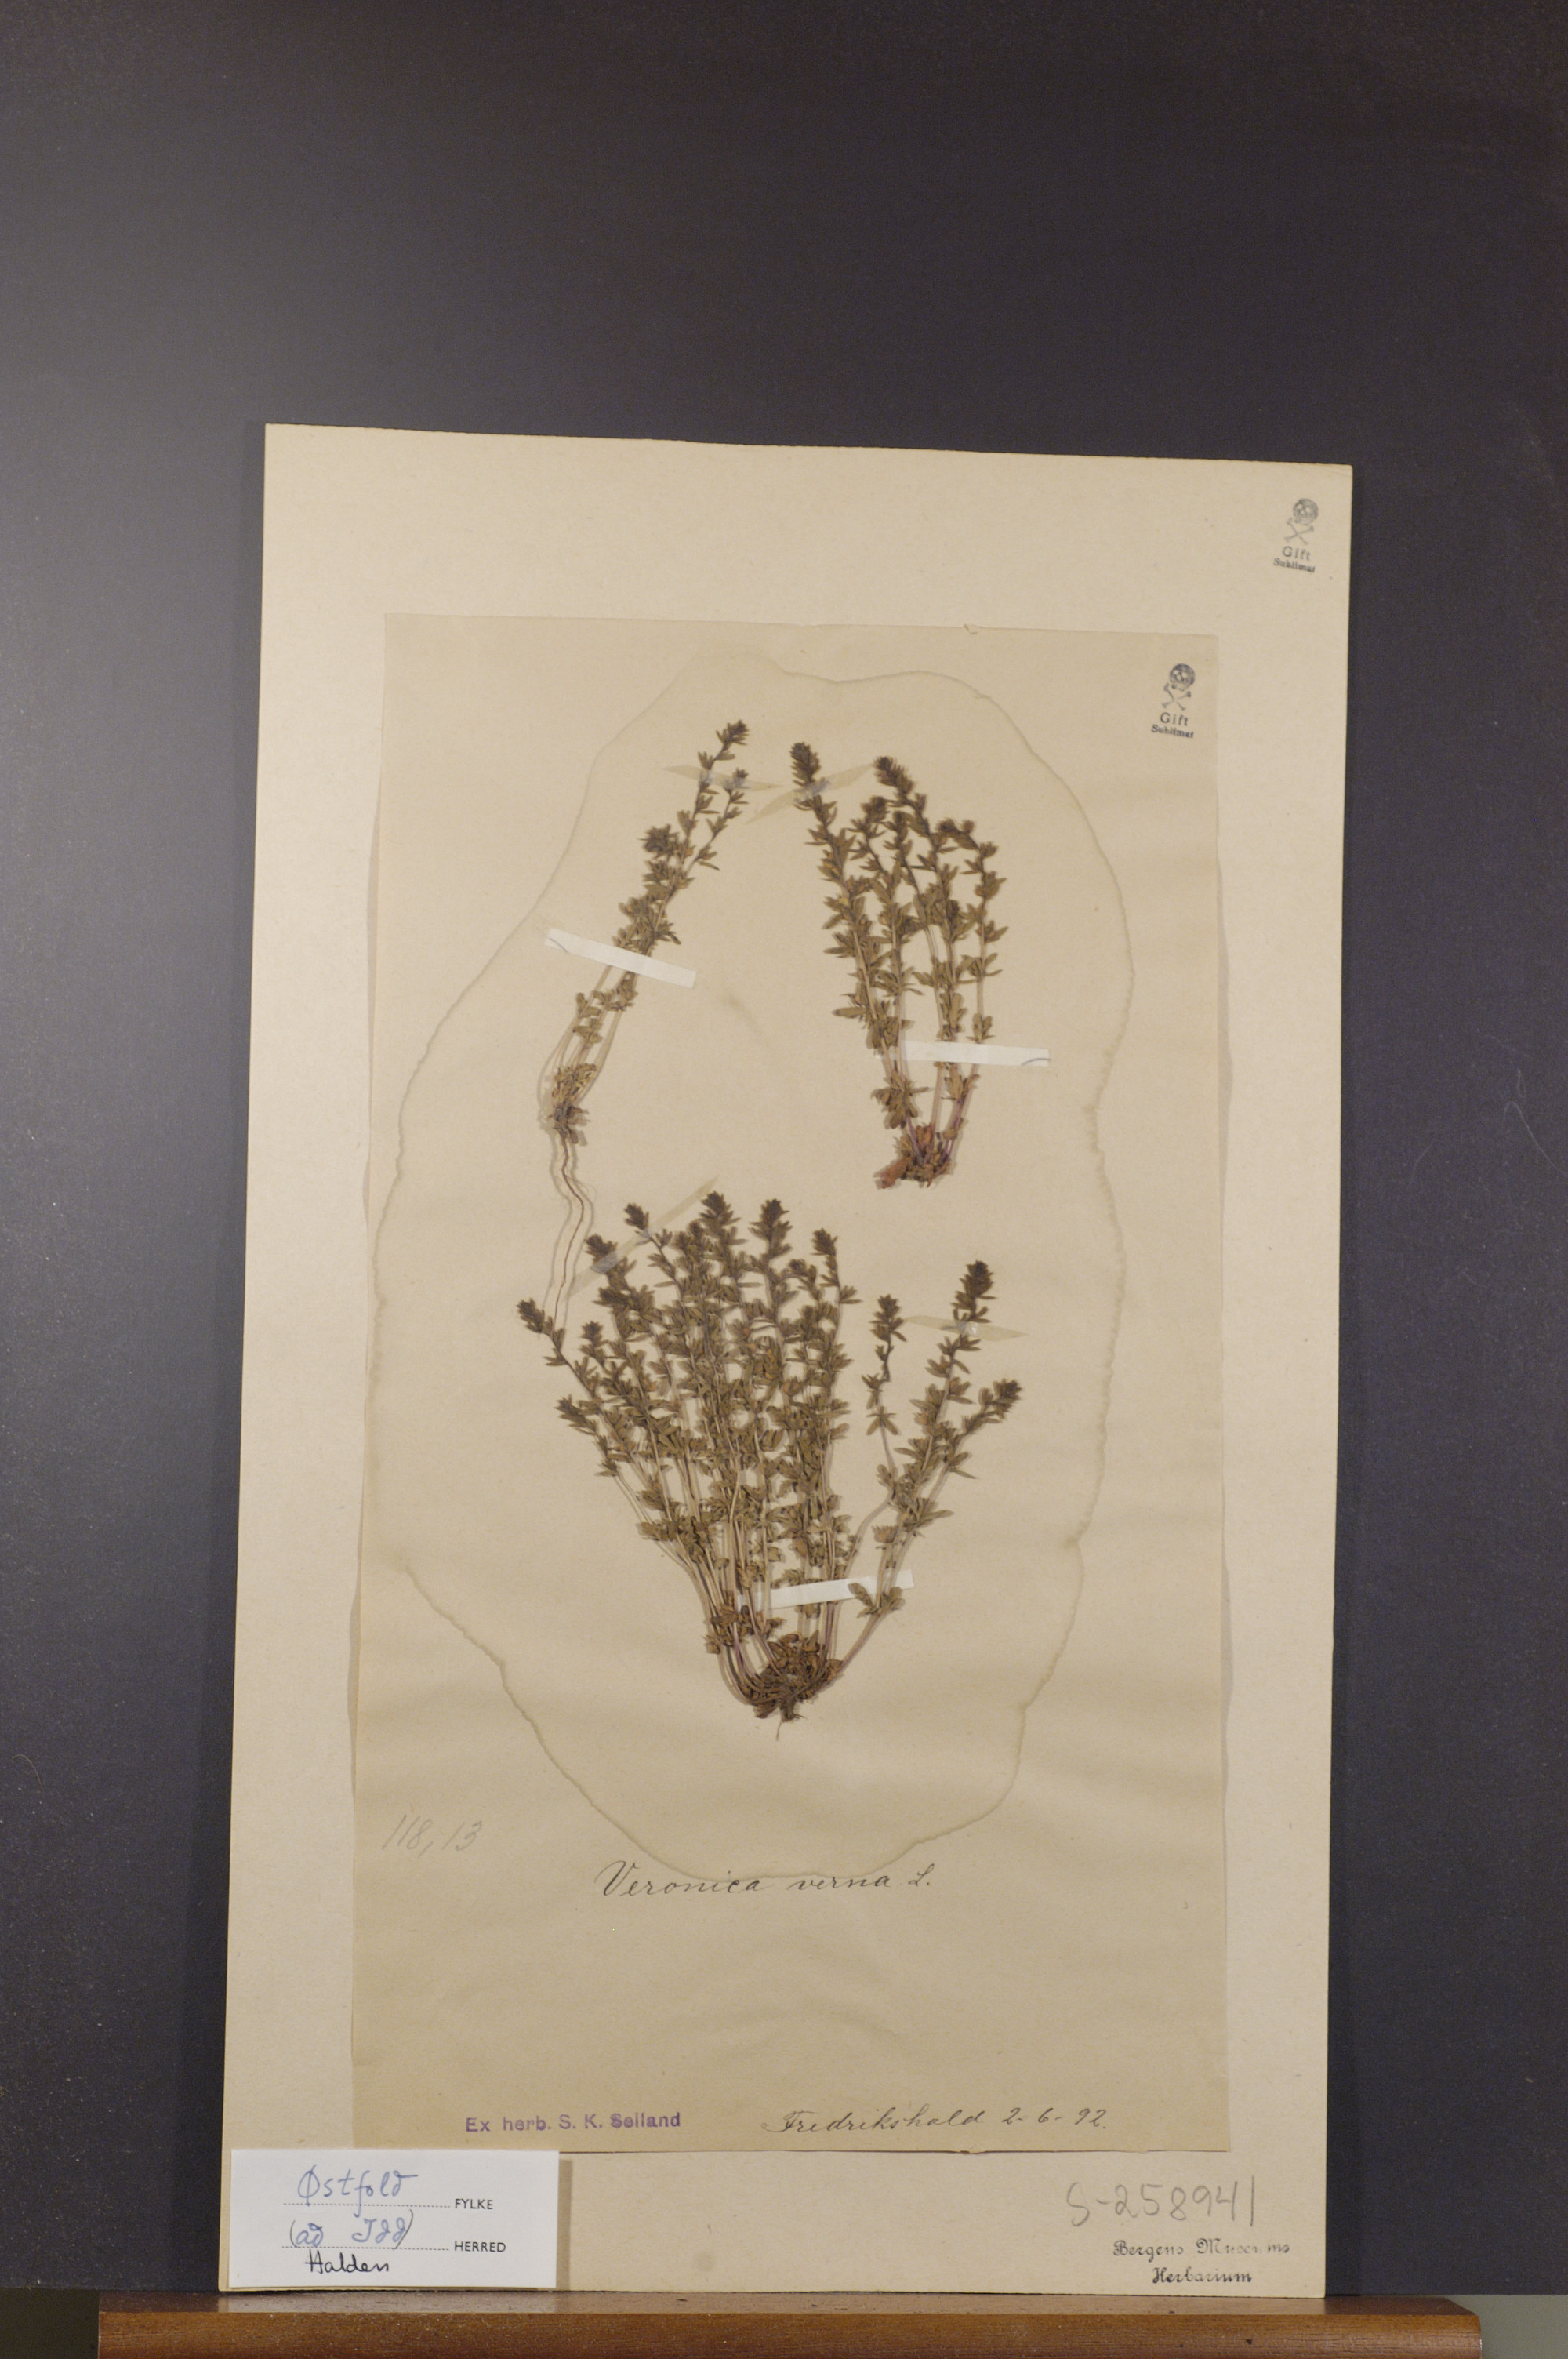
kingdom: Plantae
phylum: Tracheophyta
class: Magnoliopsida
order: Lamiales
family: Plantaginaceae
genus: Veronica
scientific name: Veronica verna
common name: Spring speedwell
